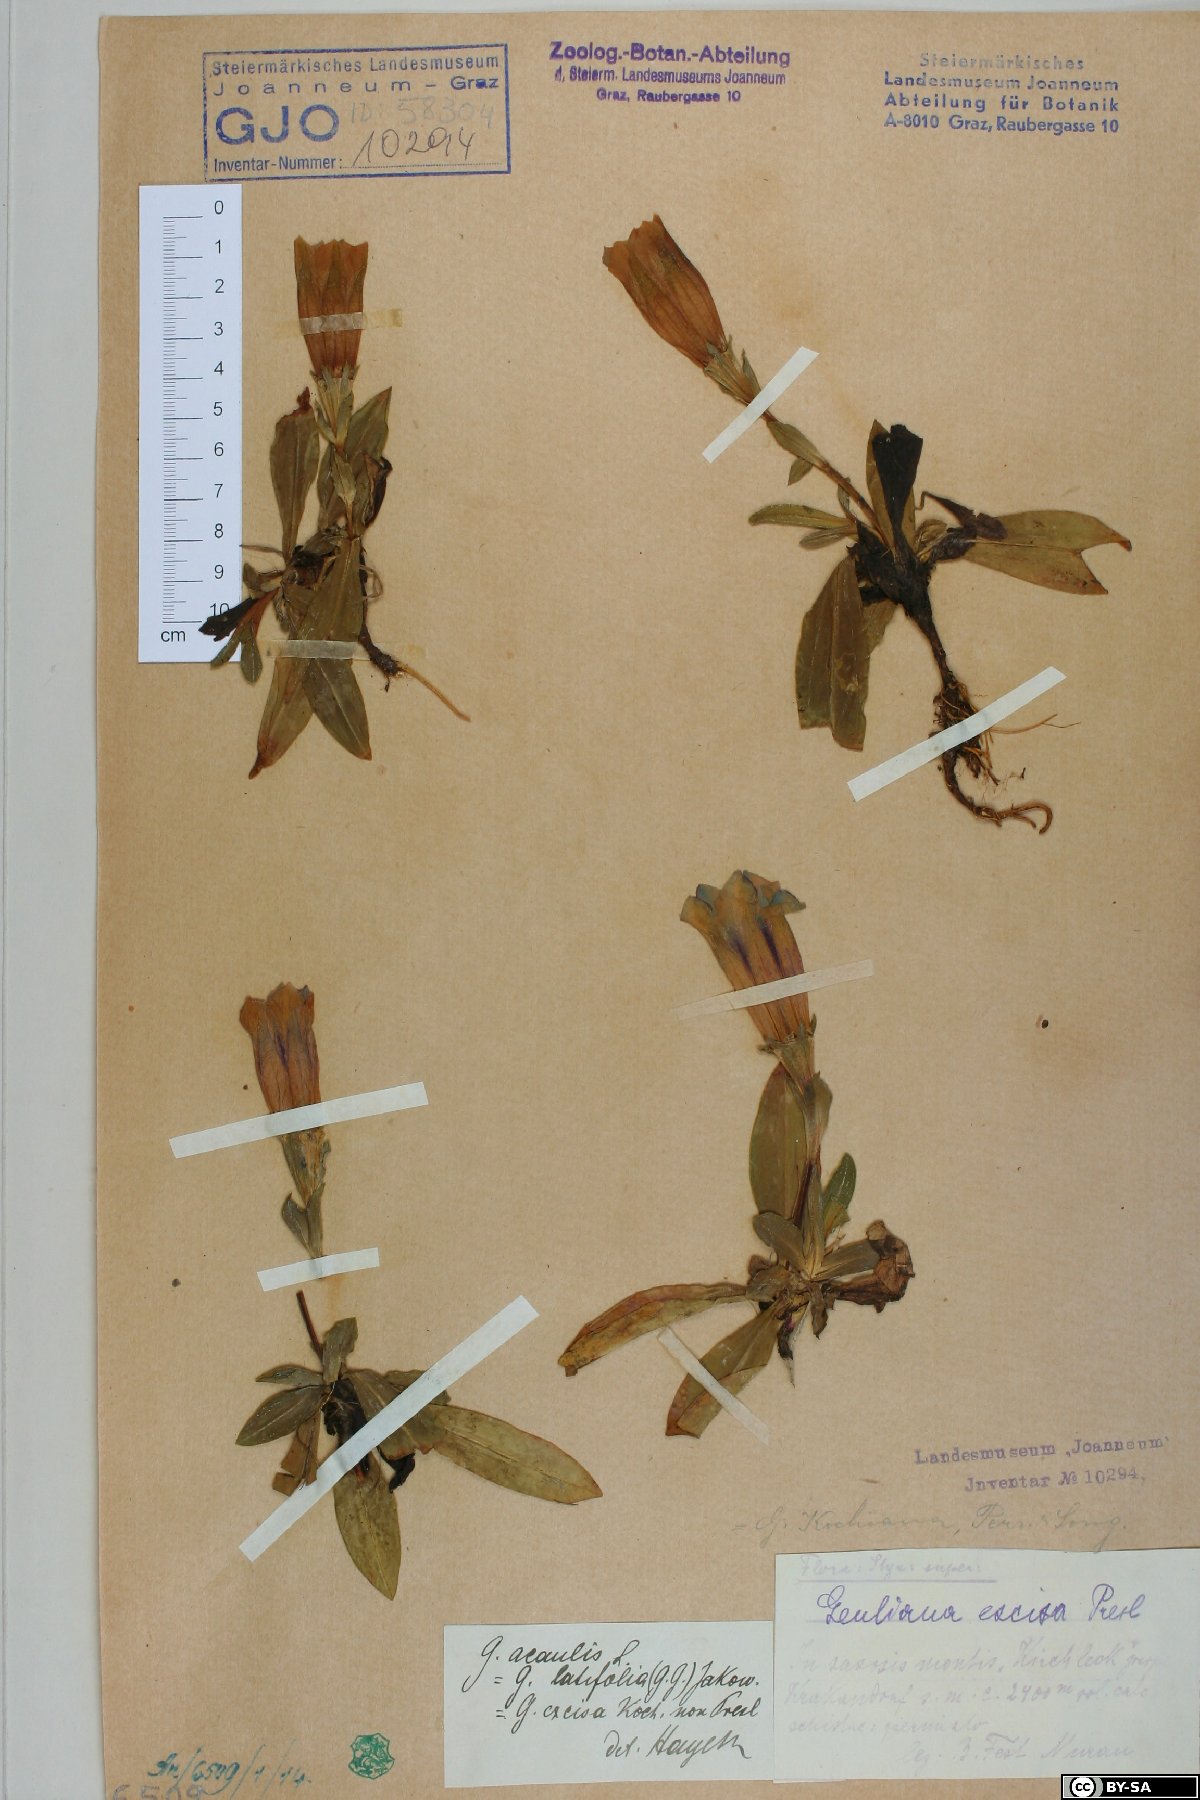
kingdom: Plantae
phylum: Tracheophyta
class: Magnoliopsida
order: Gentianales
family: Gentianaceae
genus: Gentiana
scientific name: Gentiana acaulis
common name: Trumpet gentian
